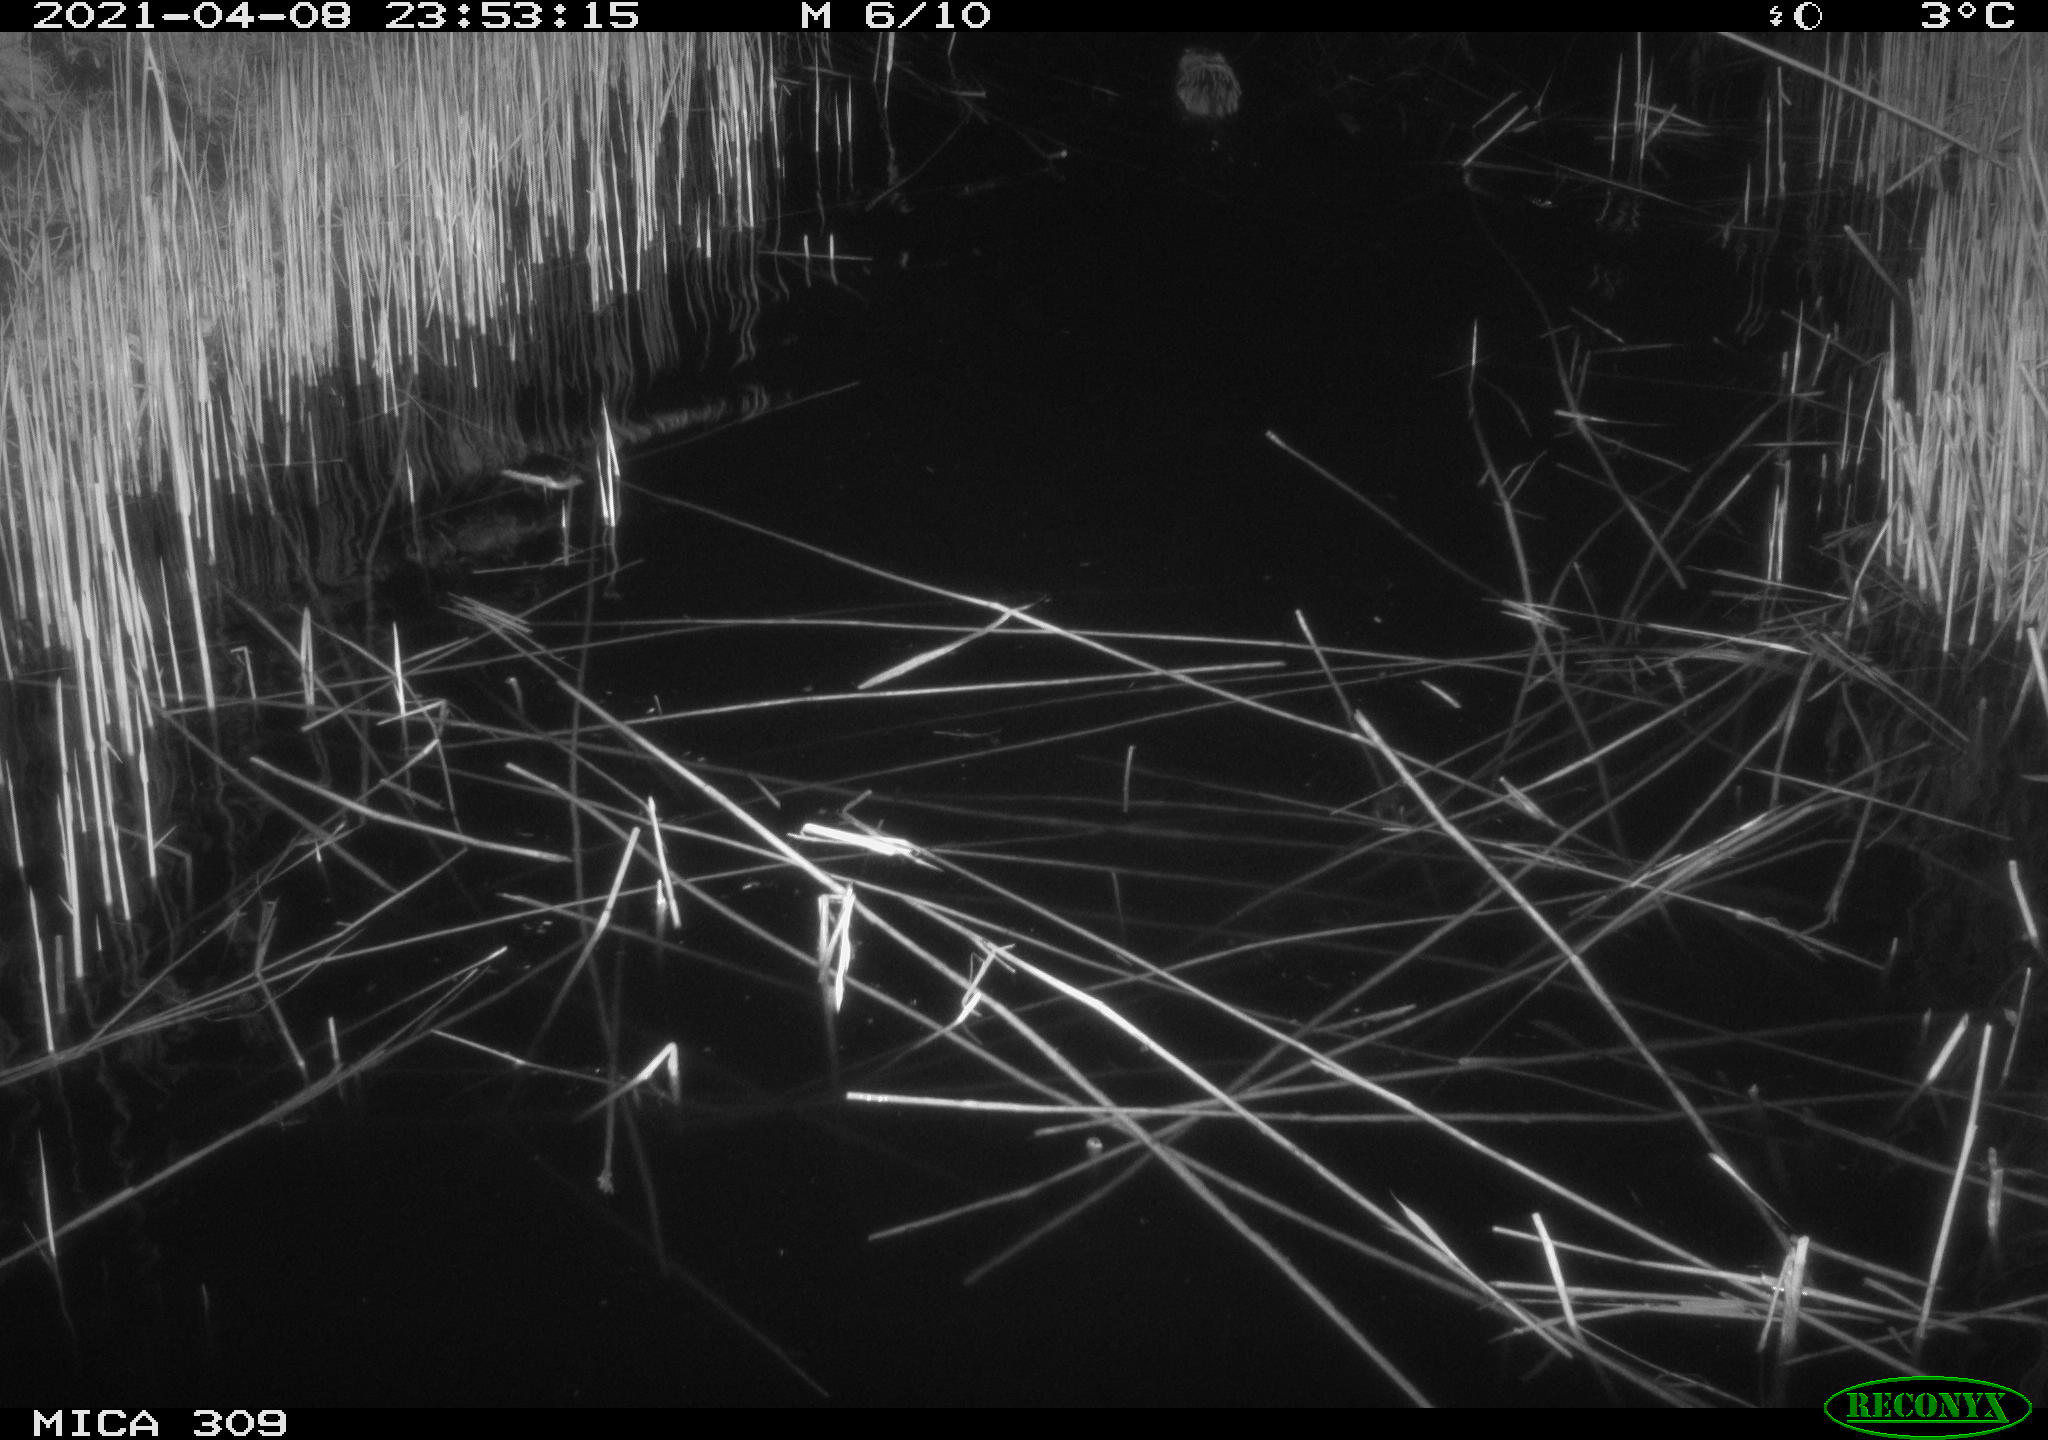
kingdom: Animalia
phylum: Chordata
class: Mammalia
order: Rodentia
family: Cricetidae
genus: Ondatra
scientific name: Ondatra zibethicus
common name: Muskrat
